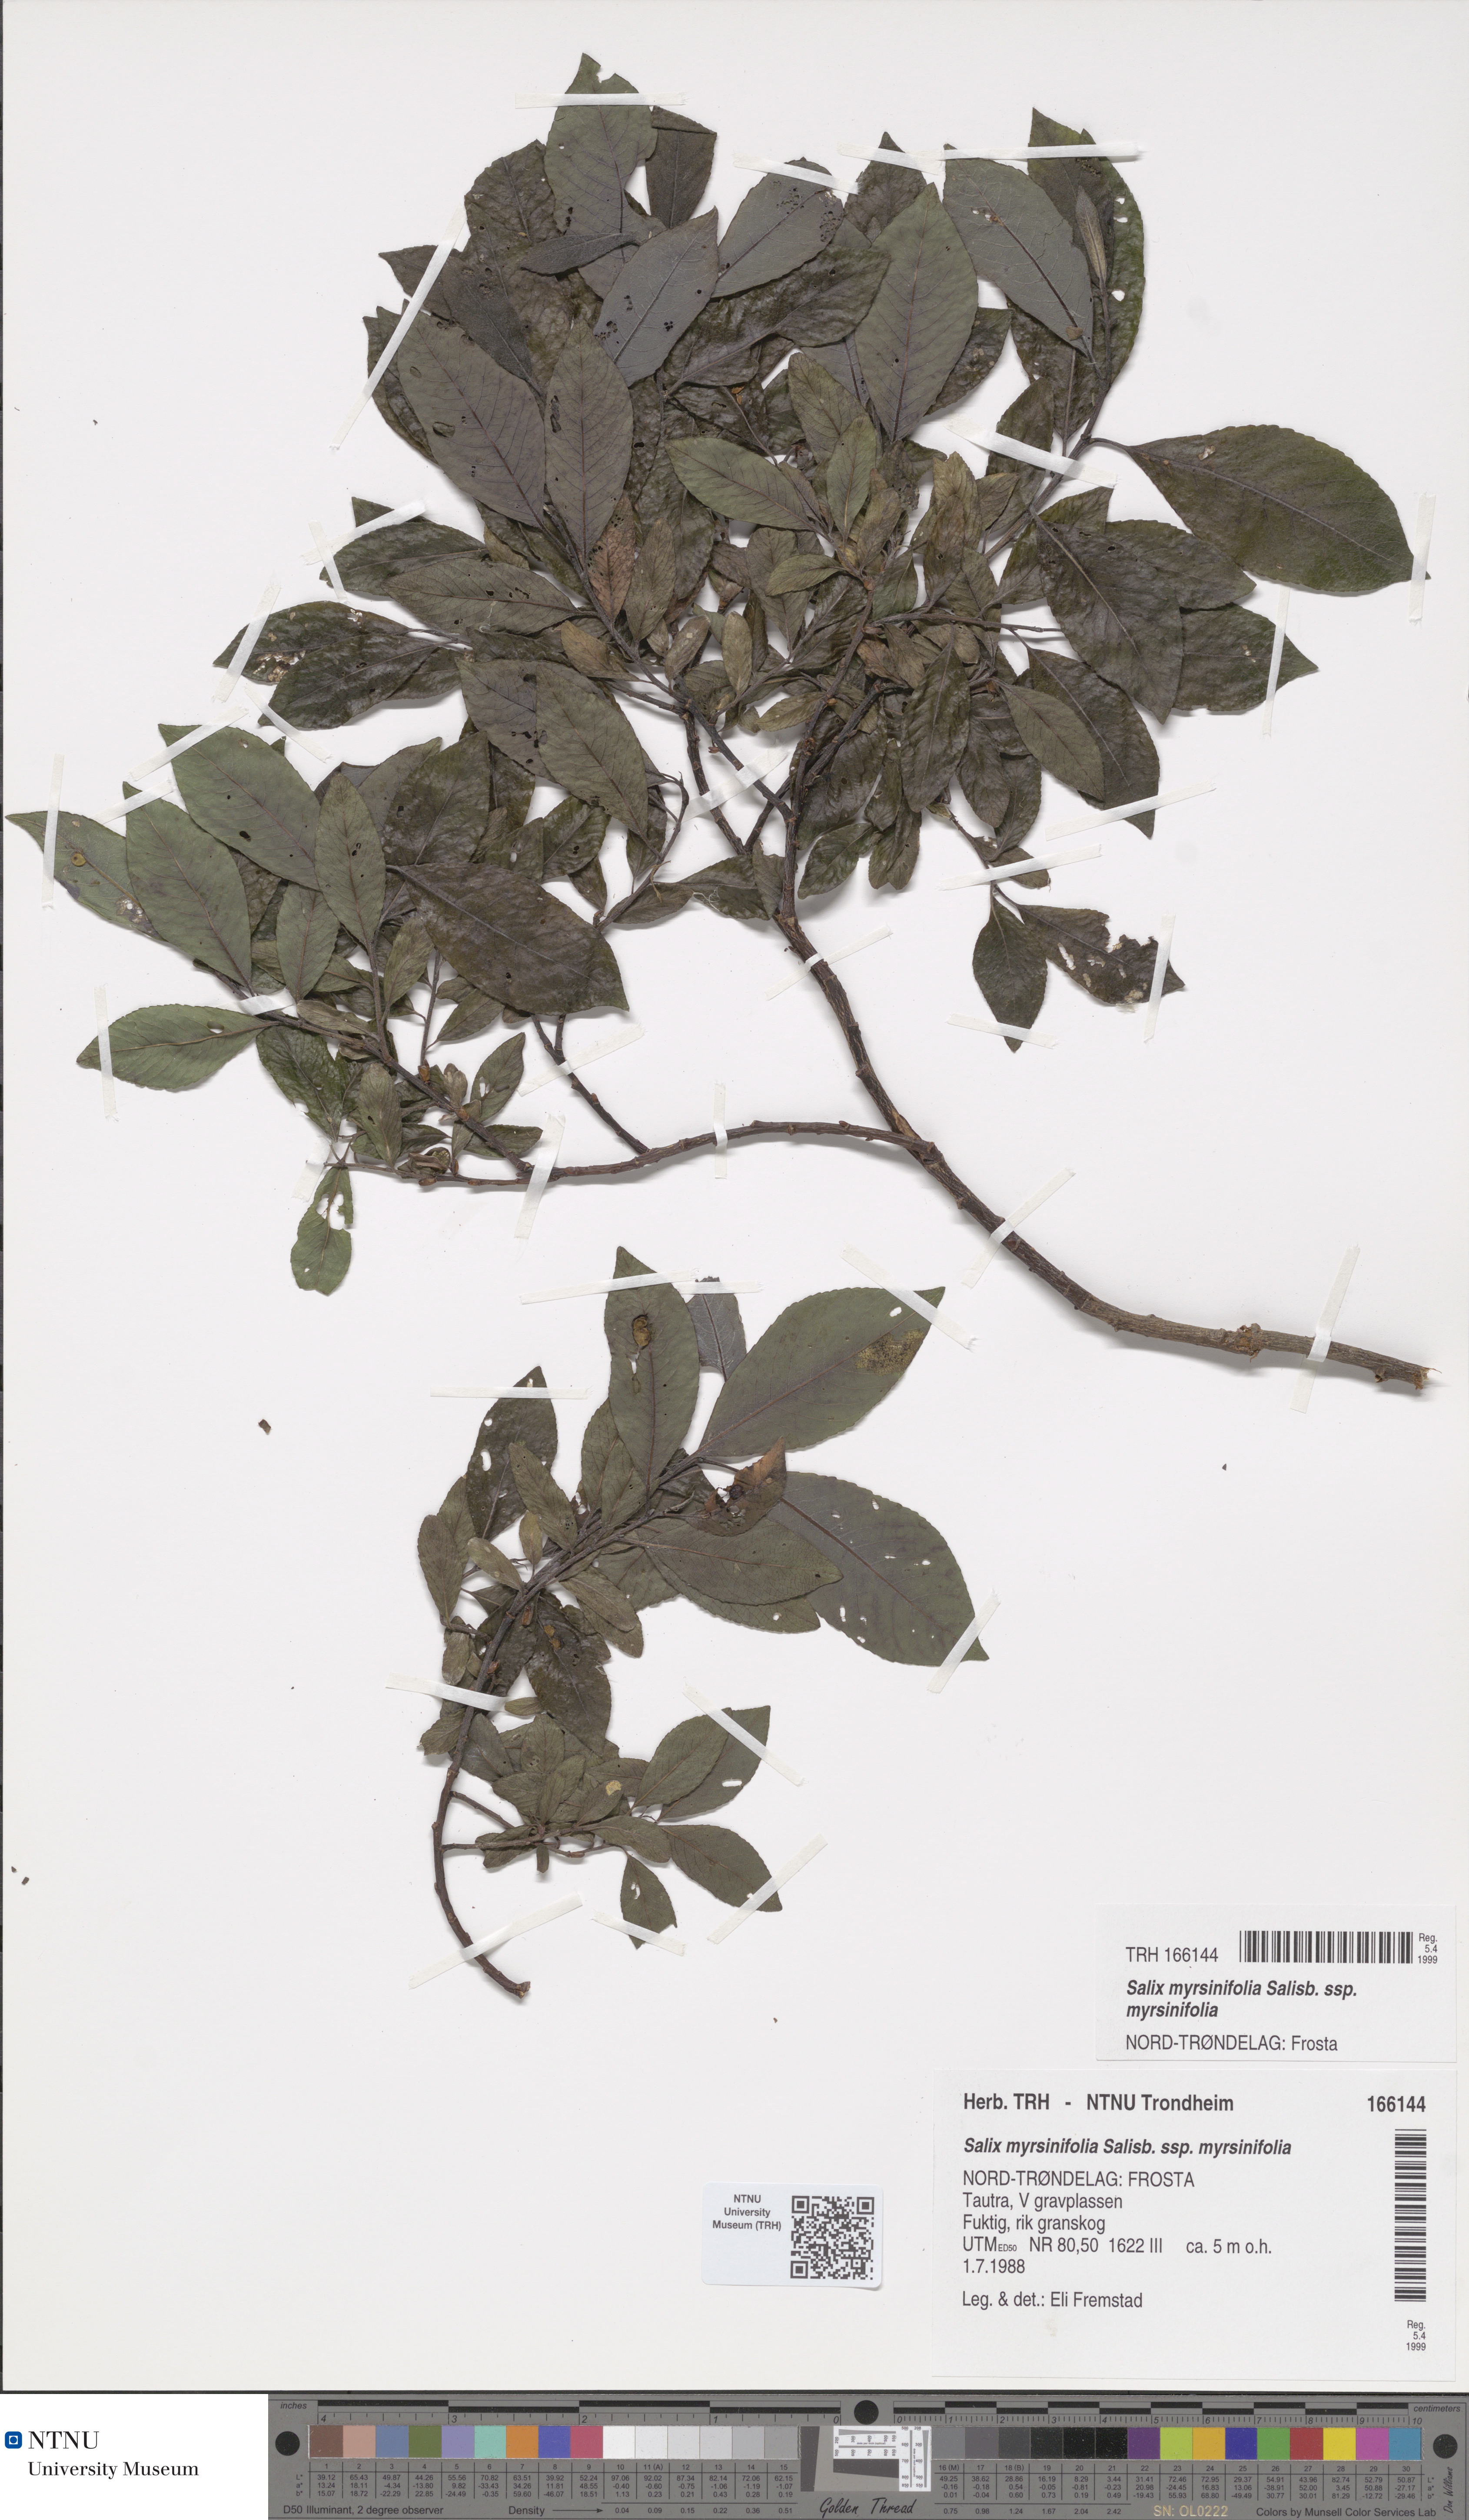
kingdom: Plantae
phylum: Tracheophyta
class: Magnoliopsida
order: Malpighiales
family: Salicaceae
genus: Salix
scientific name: Salix myrsinifolia
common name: Dark-leaved willow
